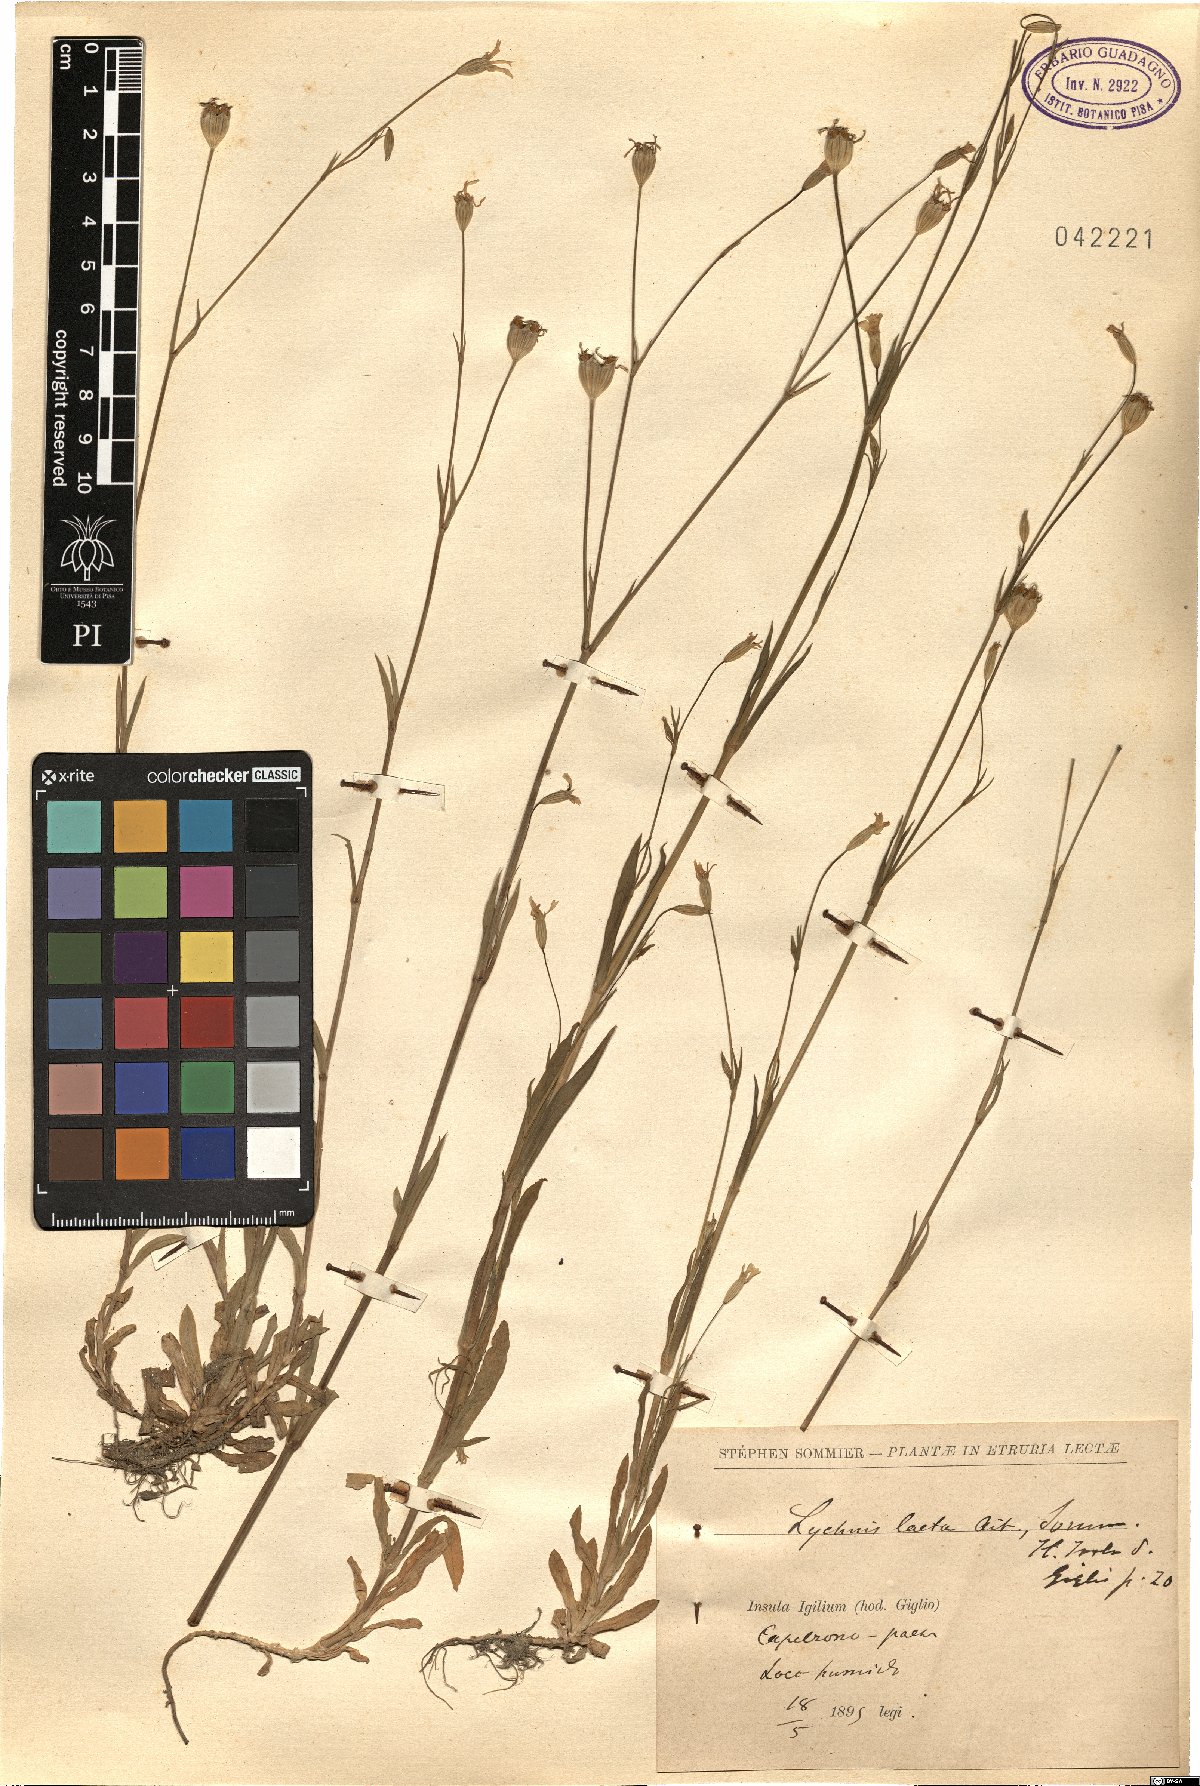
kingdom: Plantae
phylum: Tracheophyta
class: Magnoliopsida
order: Caryophyllales
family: Caryophyllaceae
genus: Eudianthe
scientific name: Eudianthe laeta
